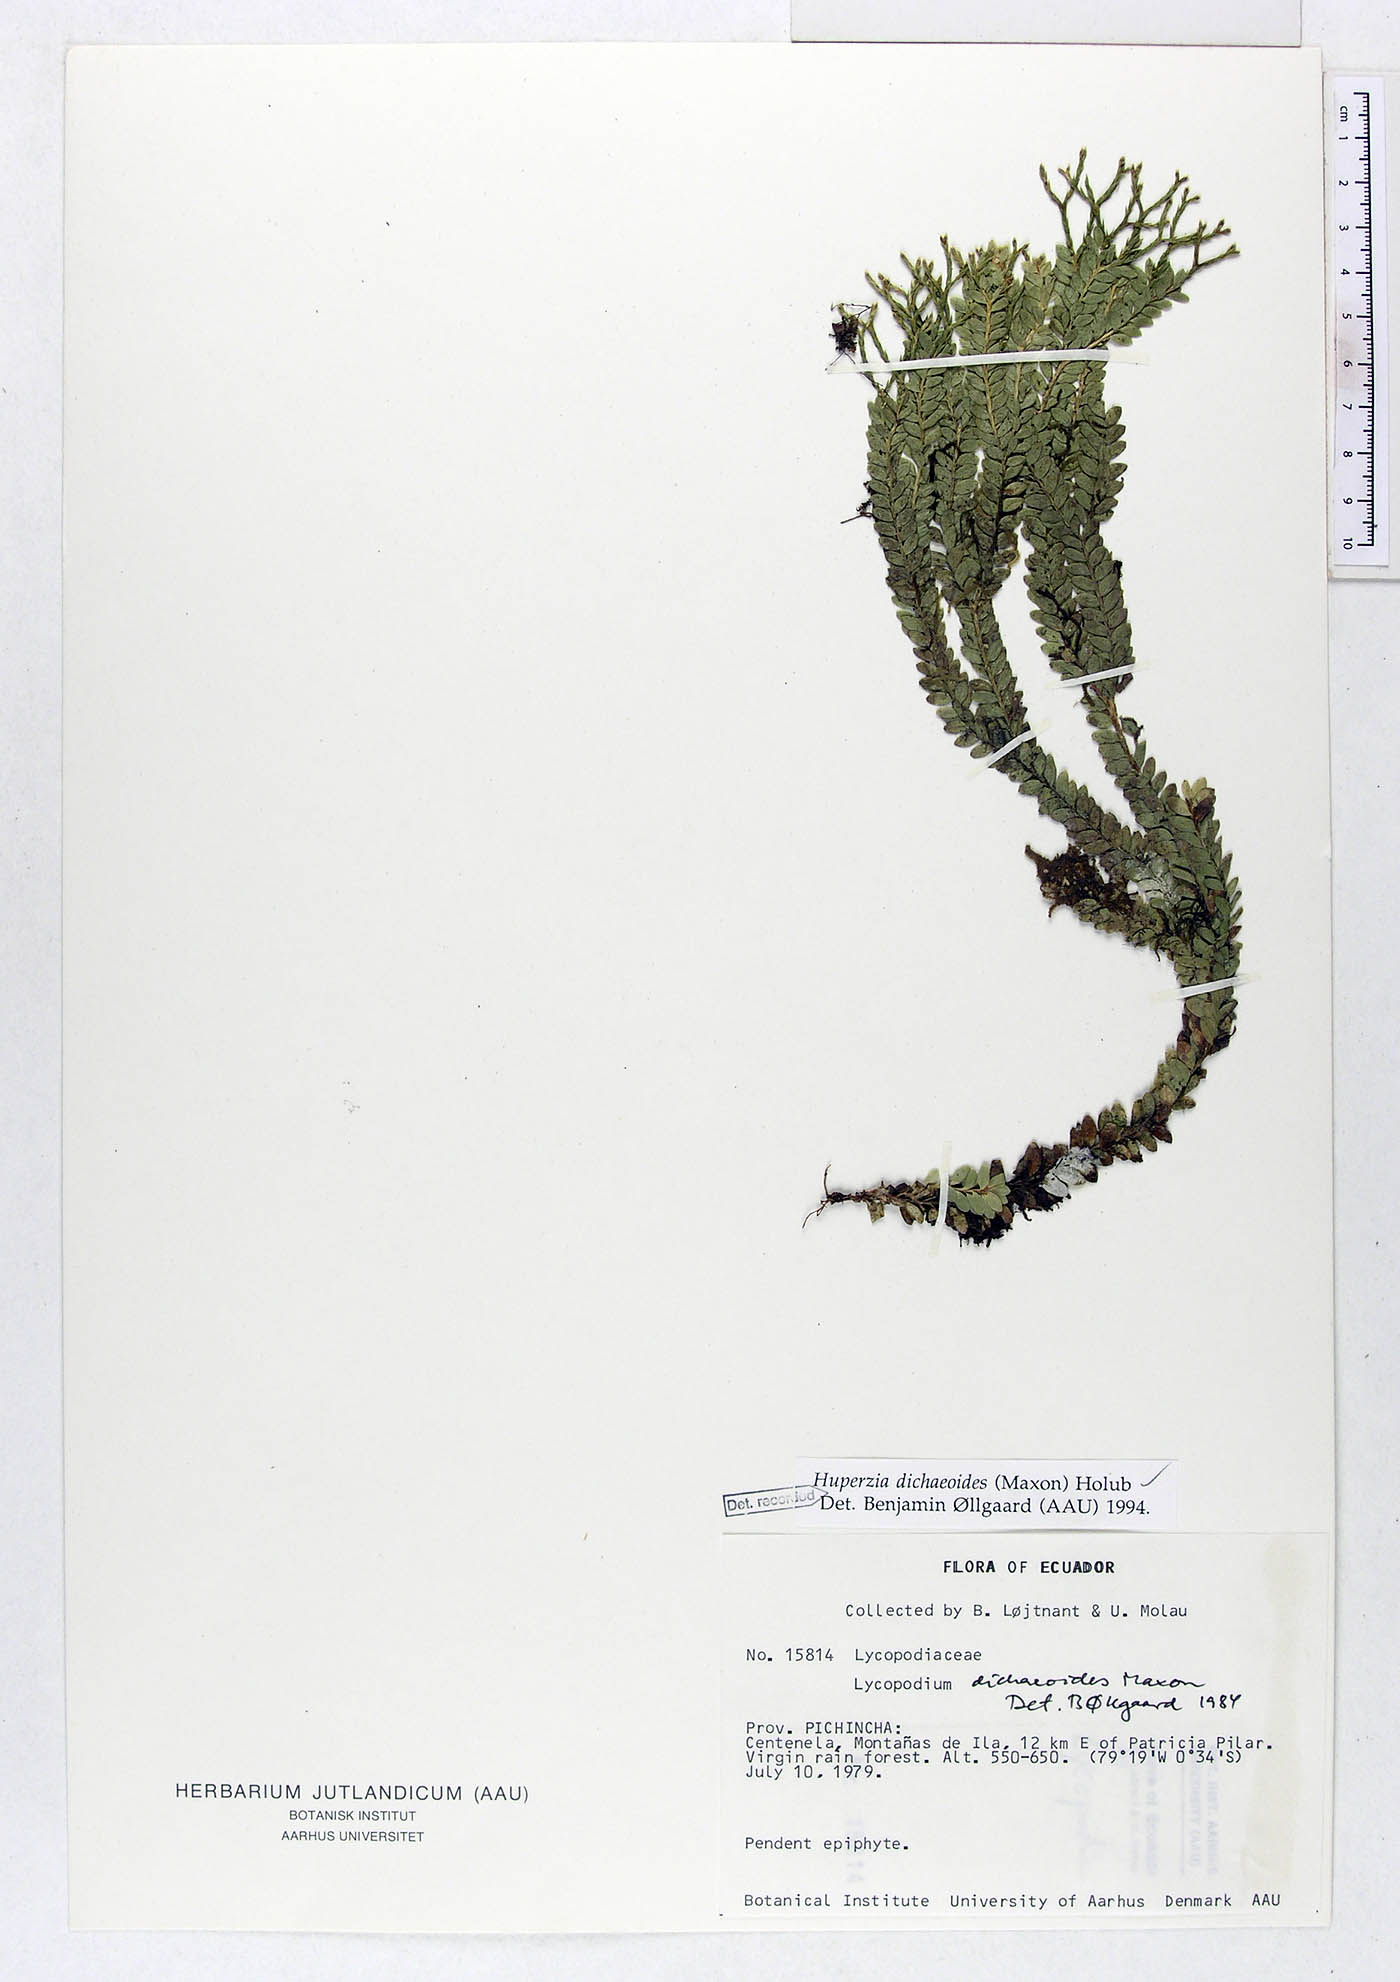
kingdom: Plantae
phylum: Tracheophyta
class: Lycopodiopsida
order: Lycopodiales
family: Lycopodiaceae
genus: Phlegmariurus
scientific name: Phlegmariurus dichaeoides
